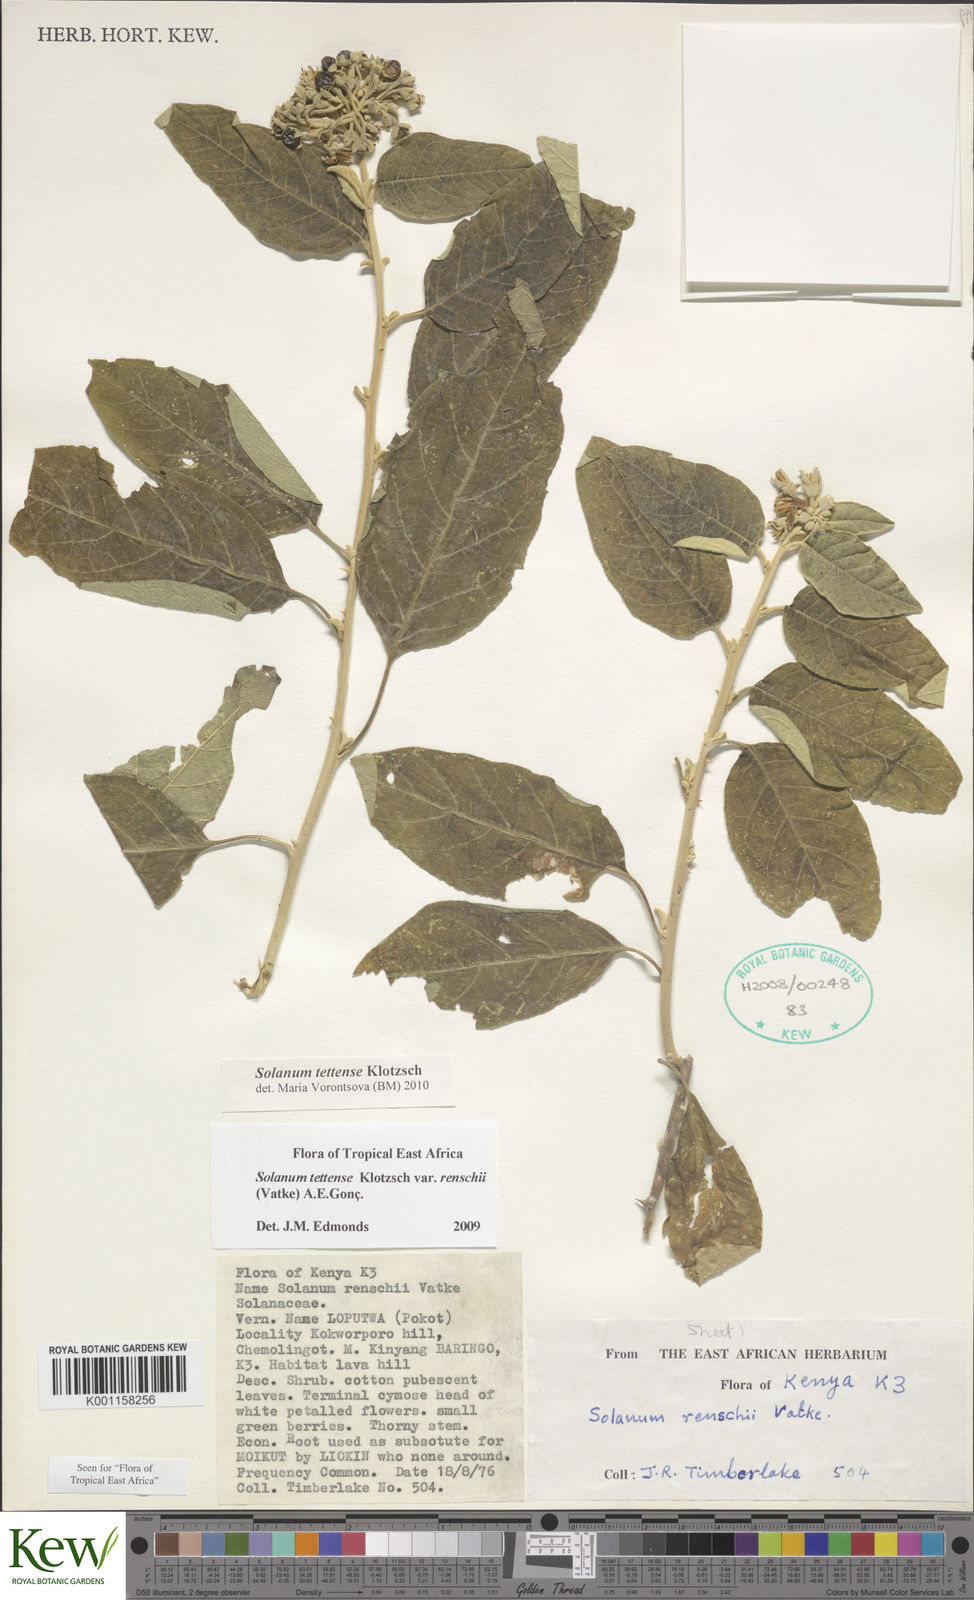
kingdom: Plantae
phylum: Tracheophyta
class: Magnoliopsida
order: Solanales
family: Solanaceae
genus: Solanum
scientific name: Solanum tettense
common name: Mozambique bitter apple
